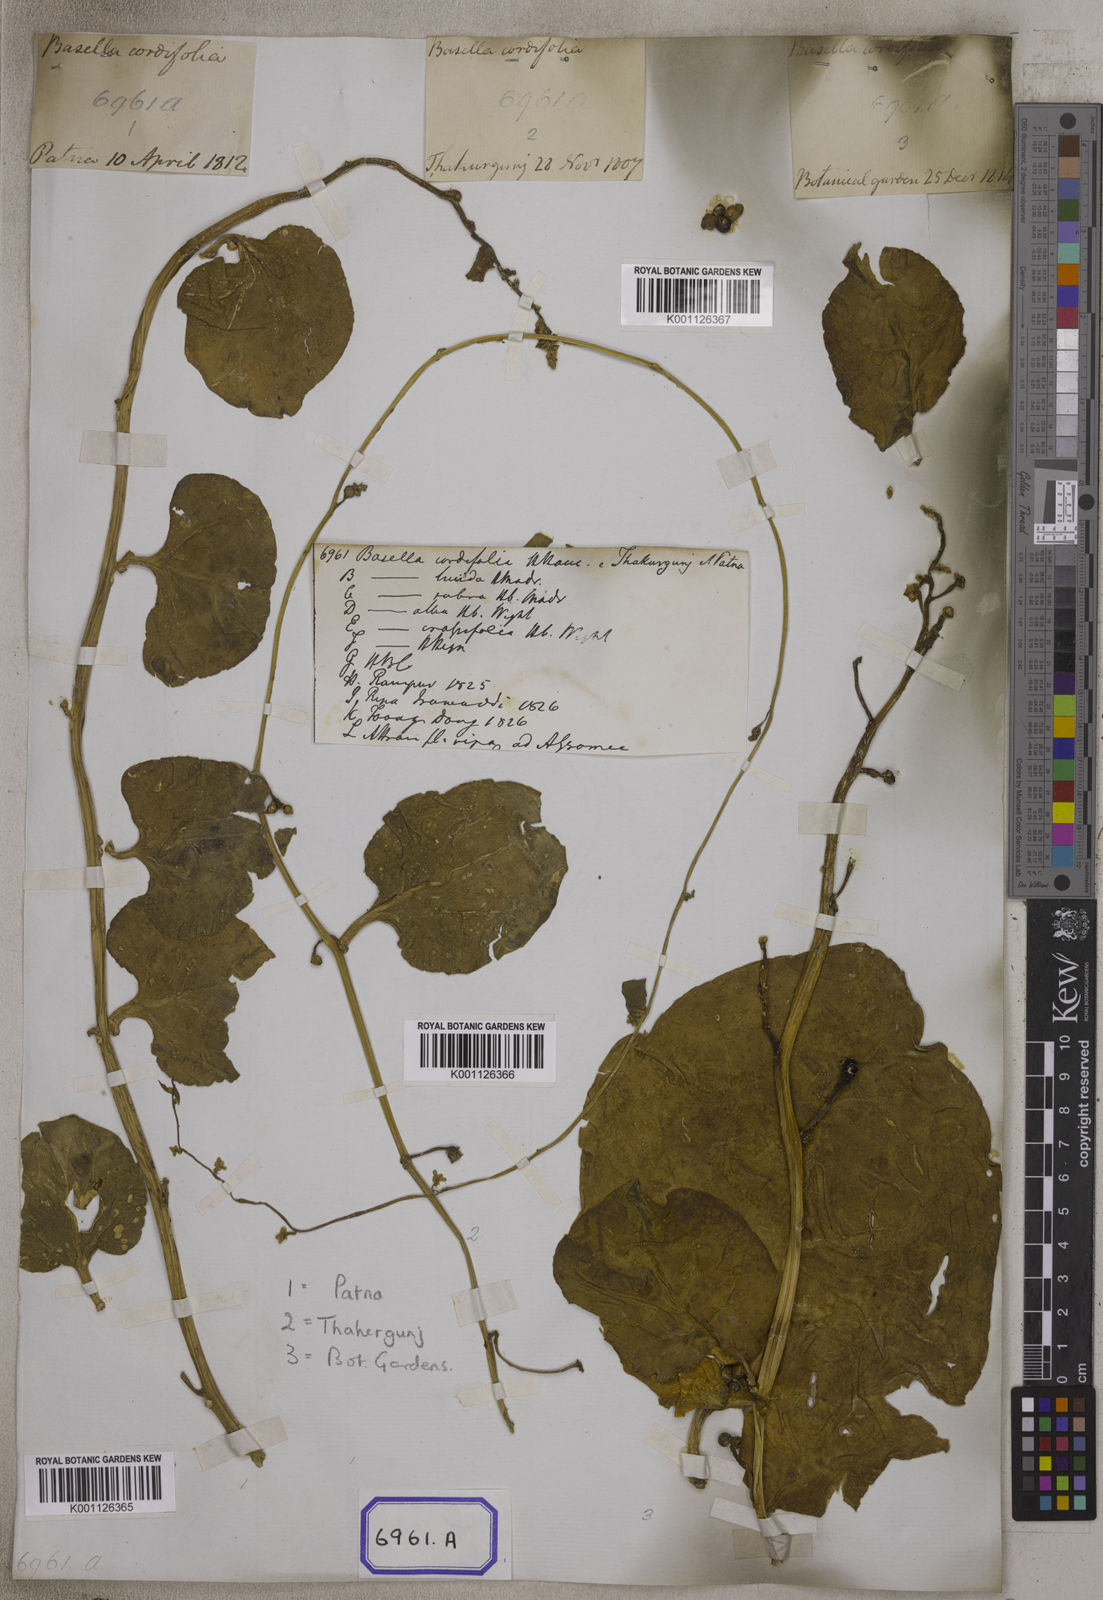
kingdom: Plantae
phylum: Tracheophyta
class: Magnoliopsida
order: Caryophyllales
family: Basellaceae
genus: Basella
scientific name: Basella alba
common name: Indian spinach
